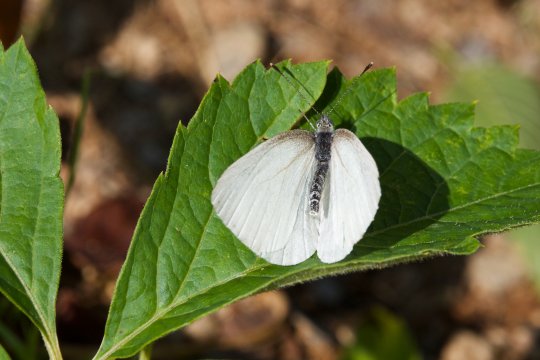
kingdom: Animalia
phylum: Arthropoda
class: Insecta
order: Lepidoptera
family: Pieridae
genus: Pieris
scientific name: Pieris oleracea
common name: Mustard White
